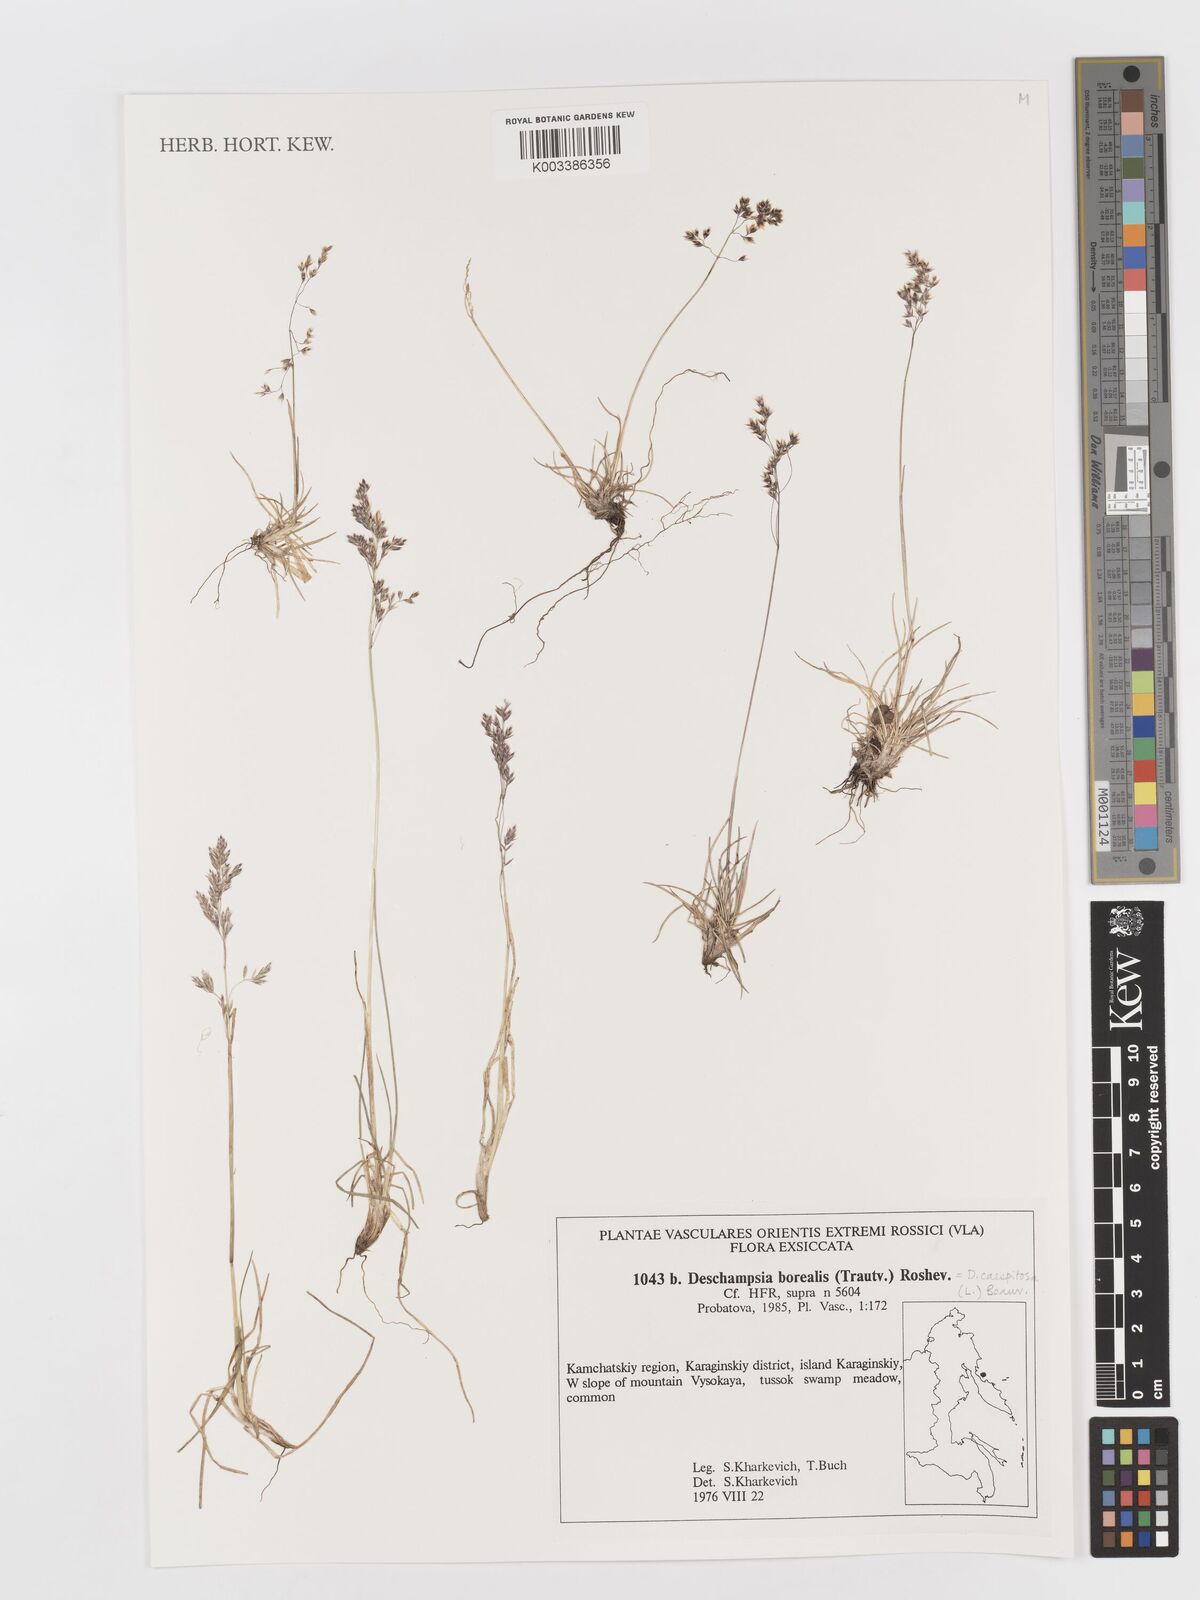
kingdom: Plantae
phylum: Tracheophyta
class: Liliopsida
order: Poales
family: Poaceae
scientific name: Poaceae
